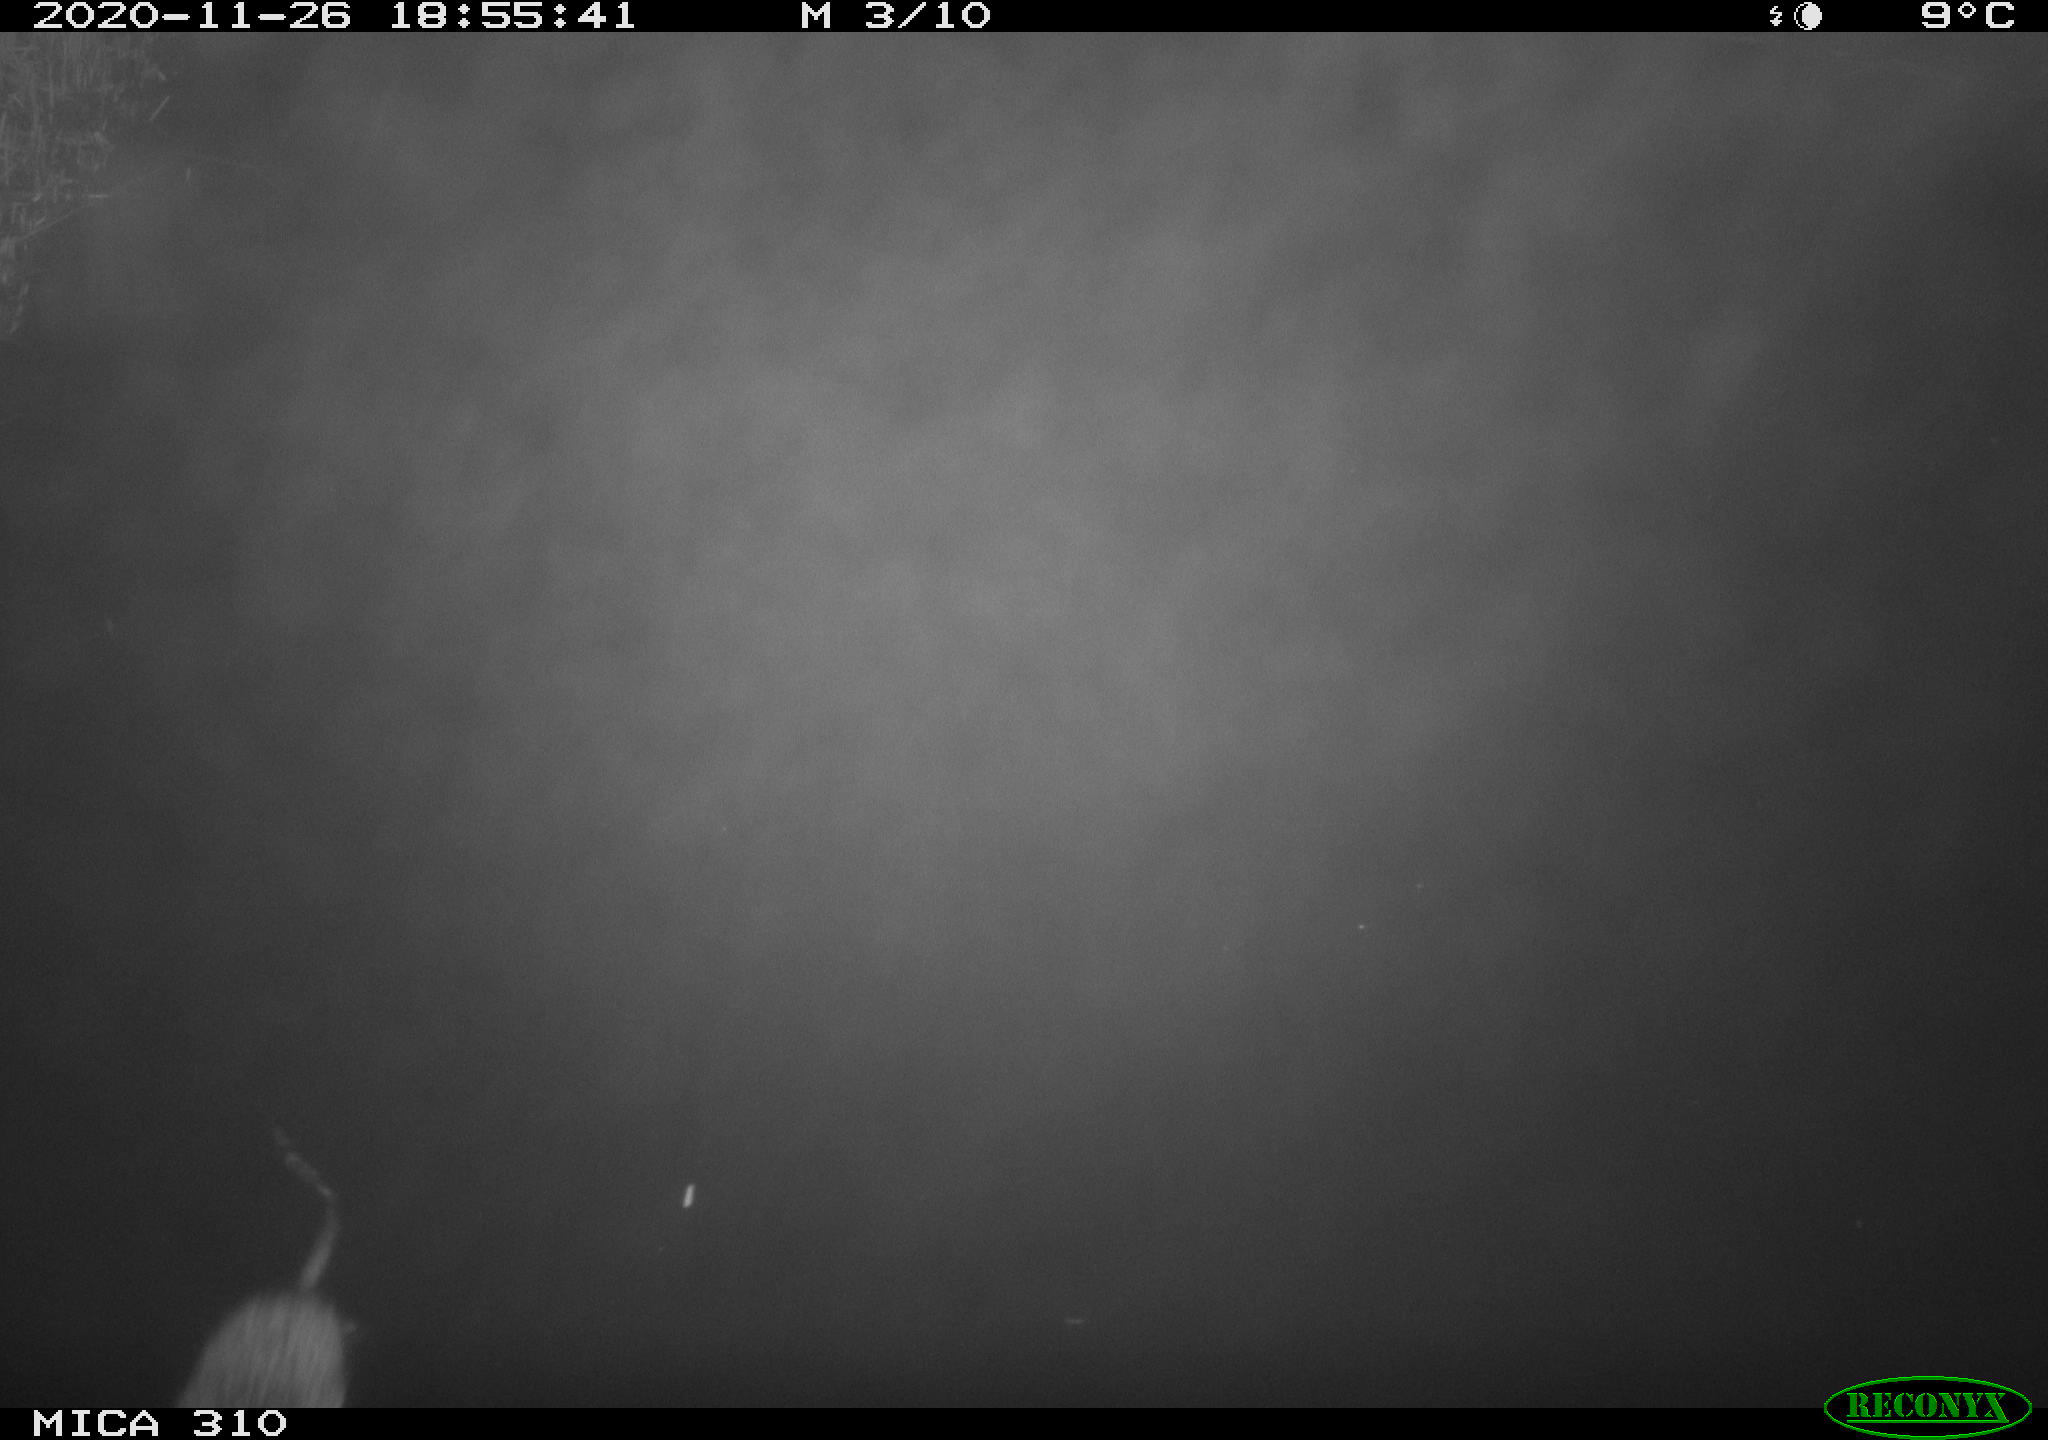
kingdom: Animalia
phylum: Chordata
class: Mammalia
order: Rodentia
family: Cricetidae
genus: Ondatra
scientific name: Ondatra zibethicus
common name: Muskrat
